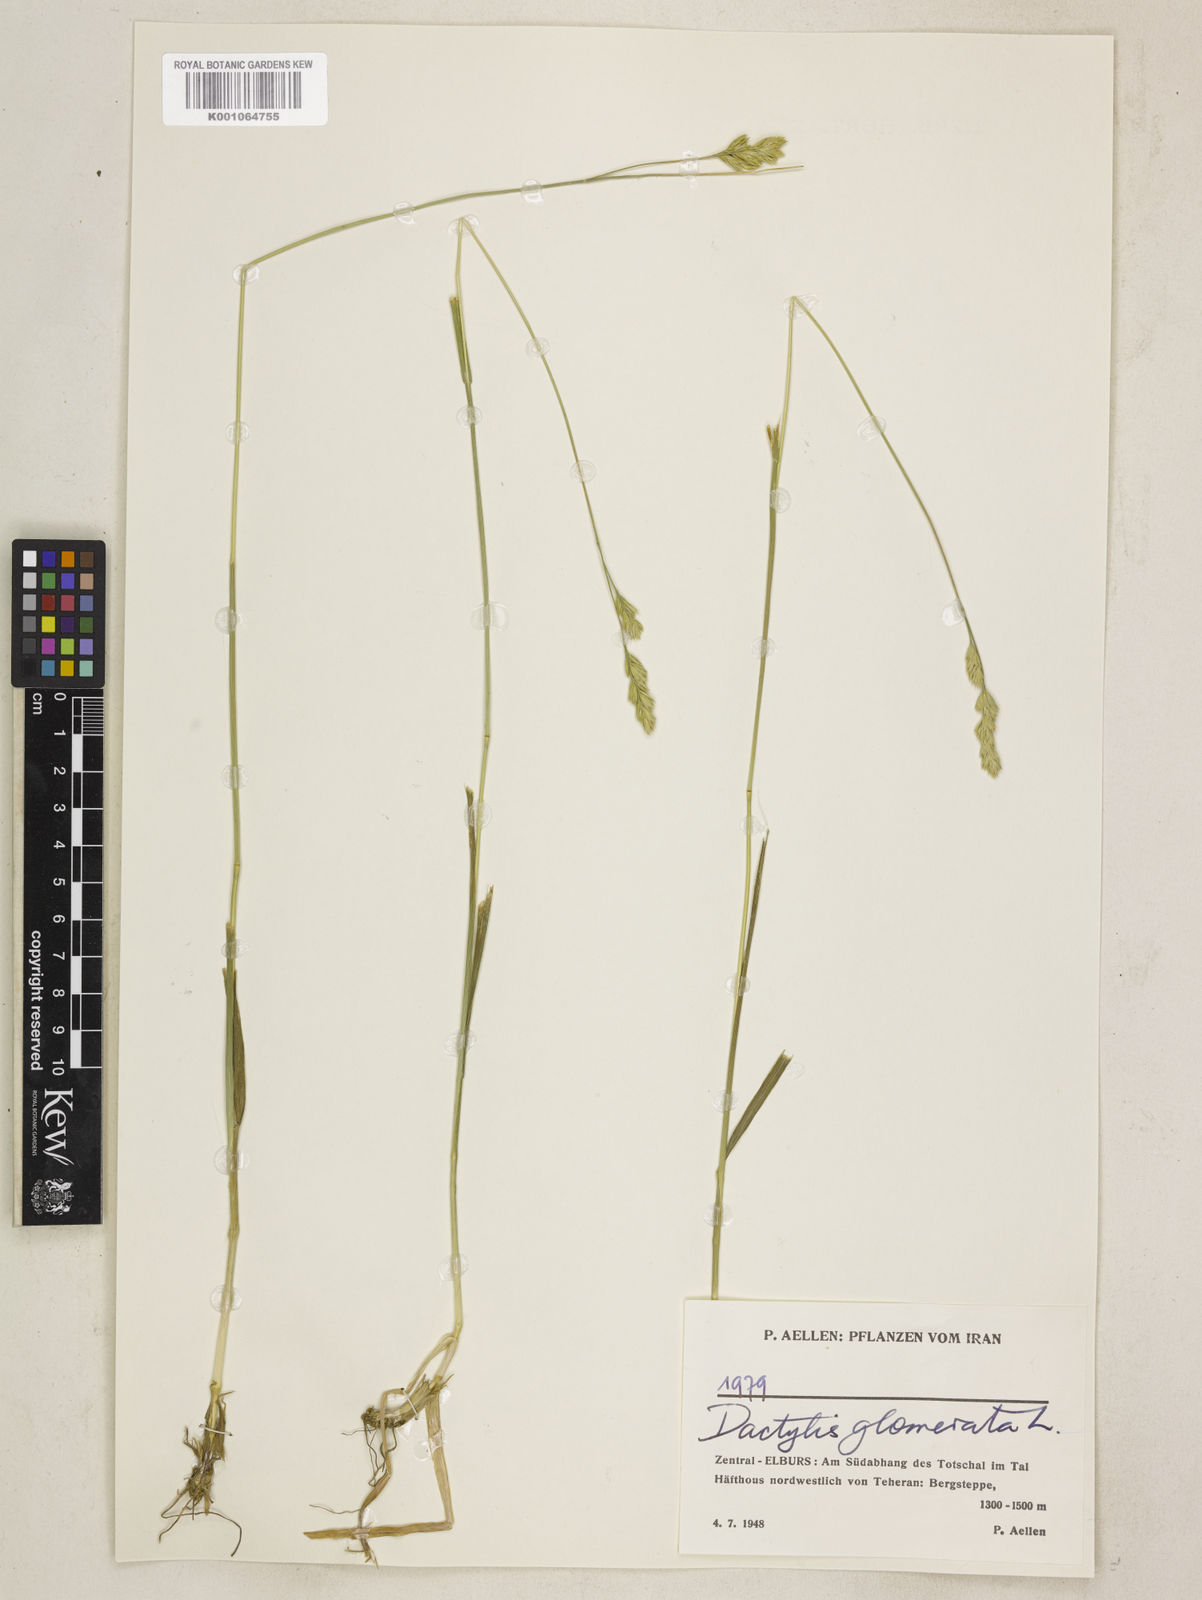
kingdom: Plantae
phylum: Tracheophyta
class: Liliopsida
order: Poales
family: Poaceae
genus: Dactylis
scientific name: Dactylis glomerata
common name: Orchardgrass
